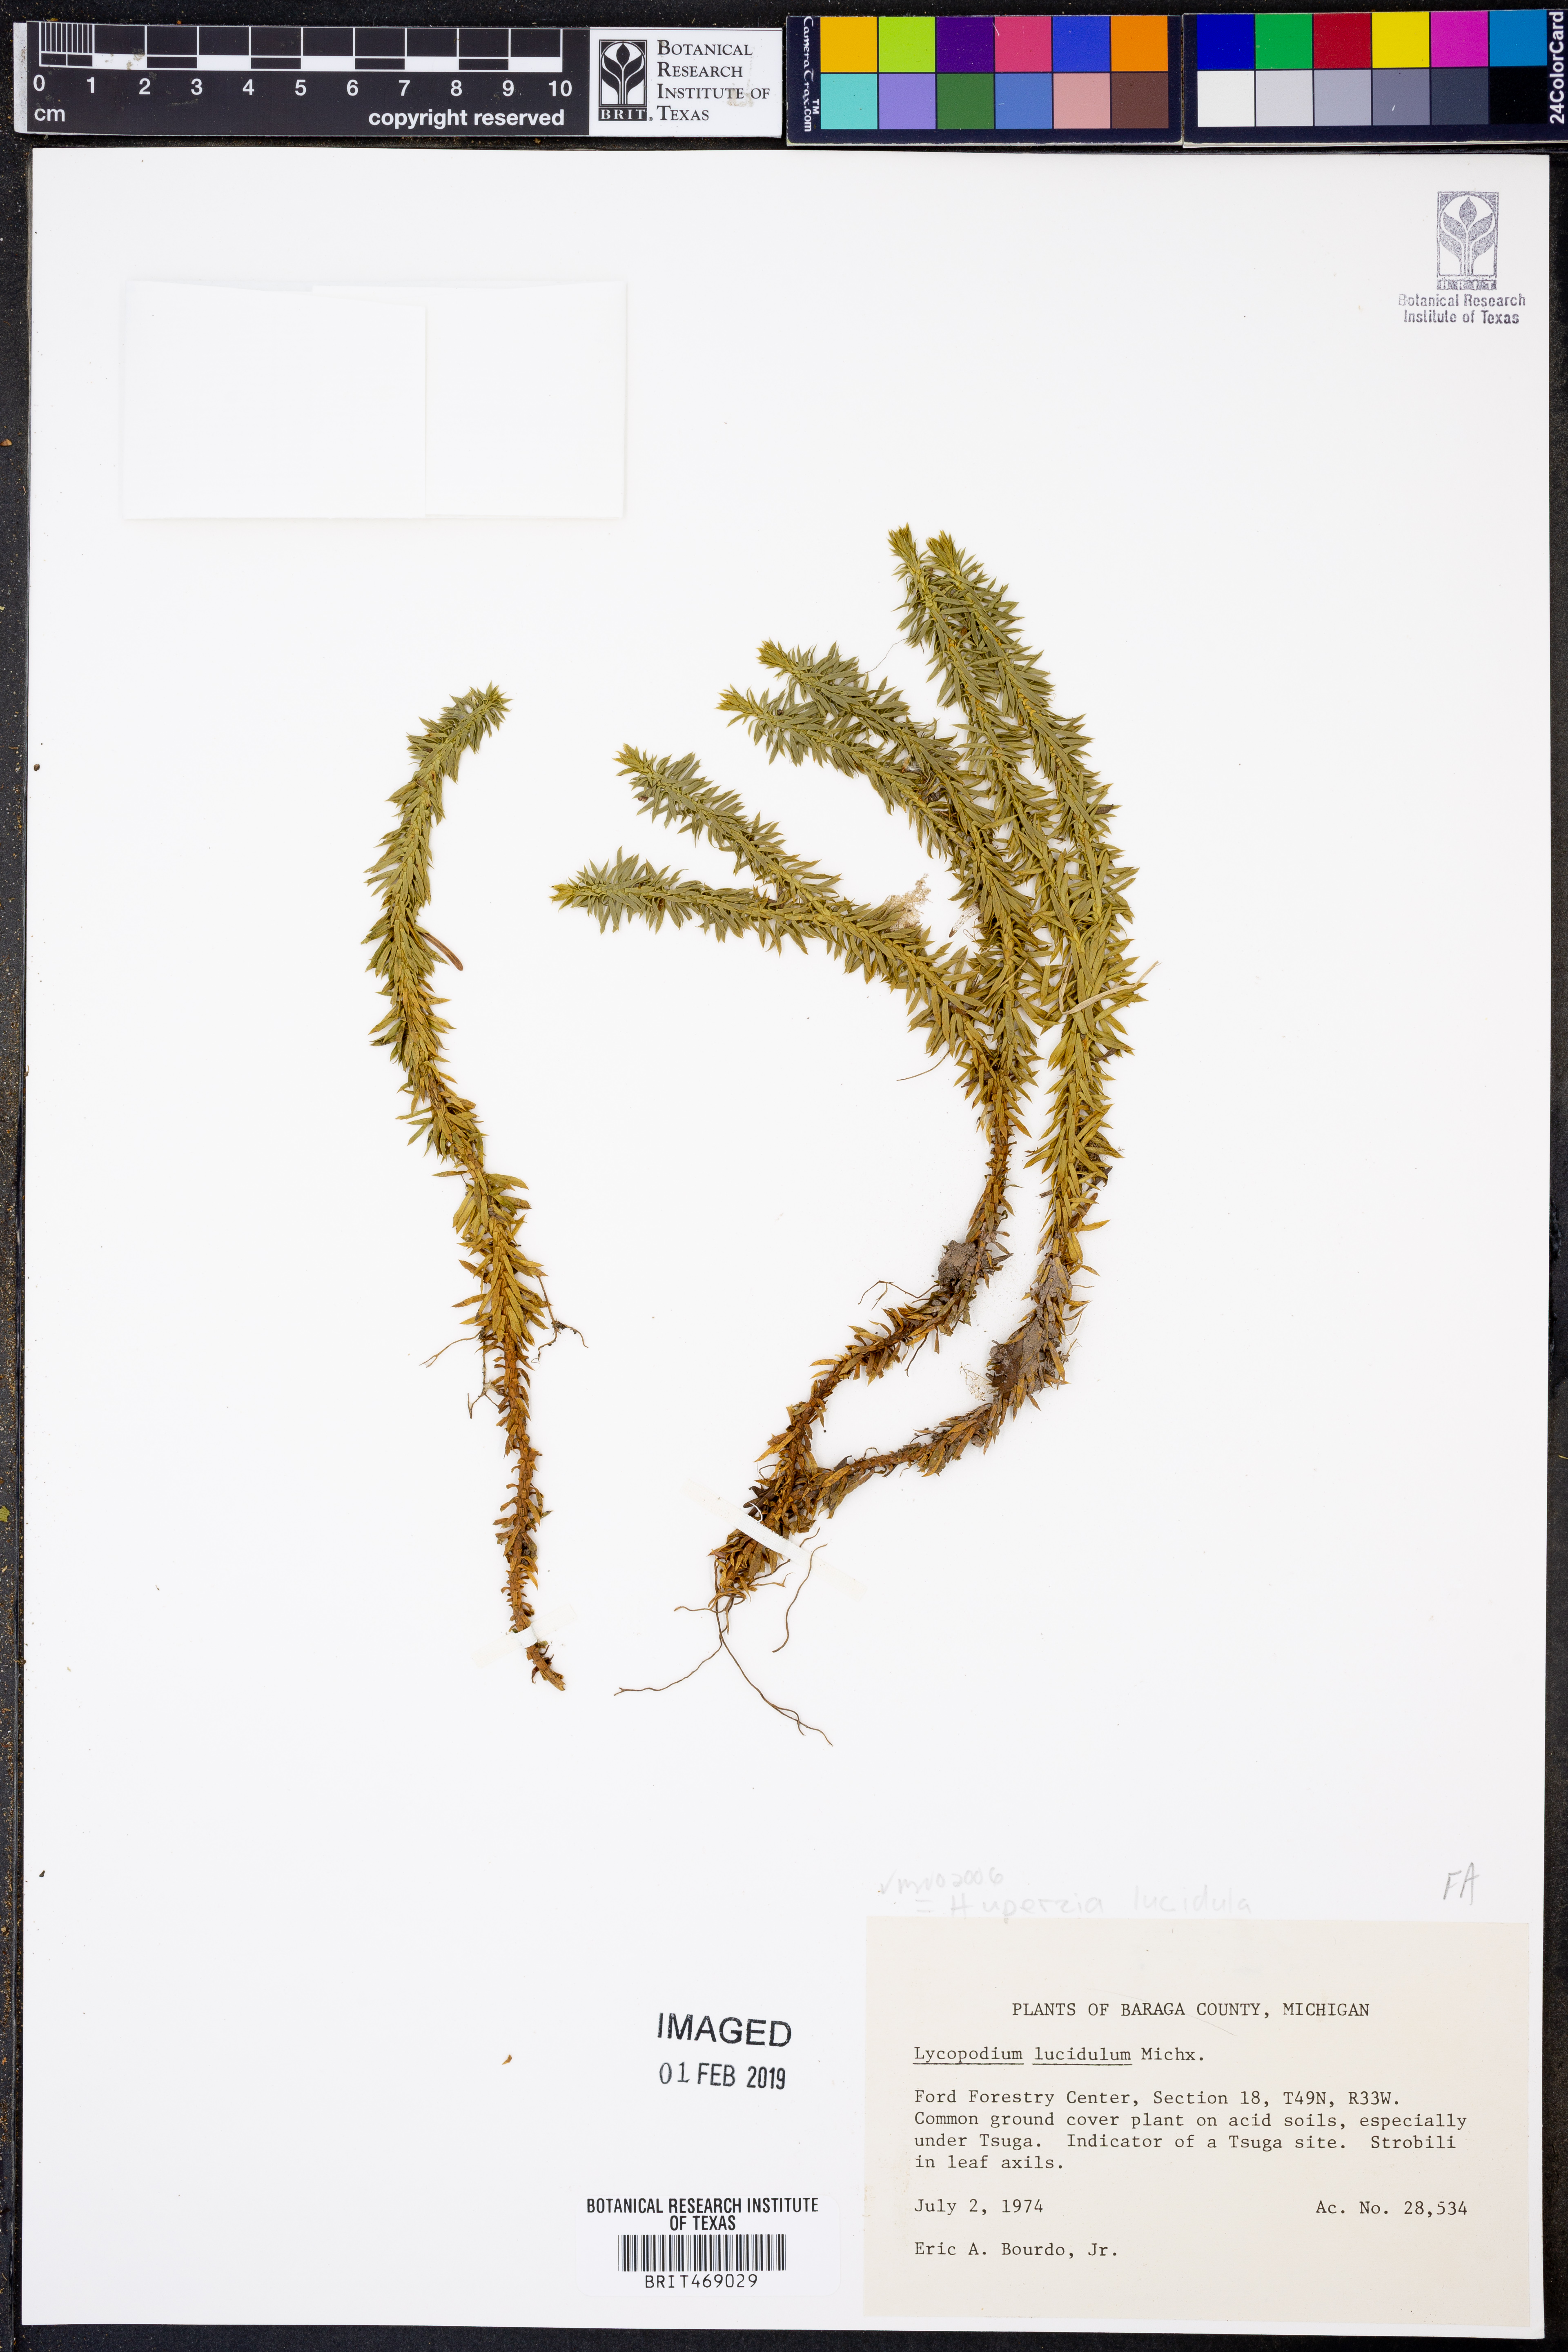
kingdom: Plantae
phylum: Tracheophyta
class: Lycopodiopsida
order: Lycopodiales
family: Lycopodiaceae
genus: Huperzia
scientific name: Huperzia lucidula
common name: Shining clubmoss
